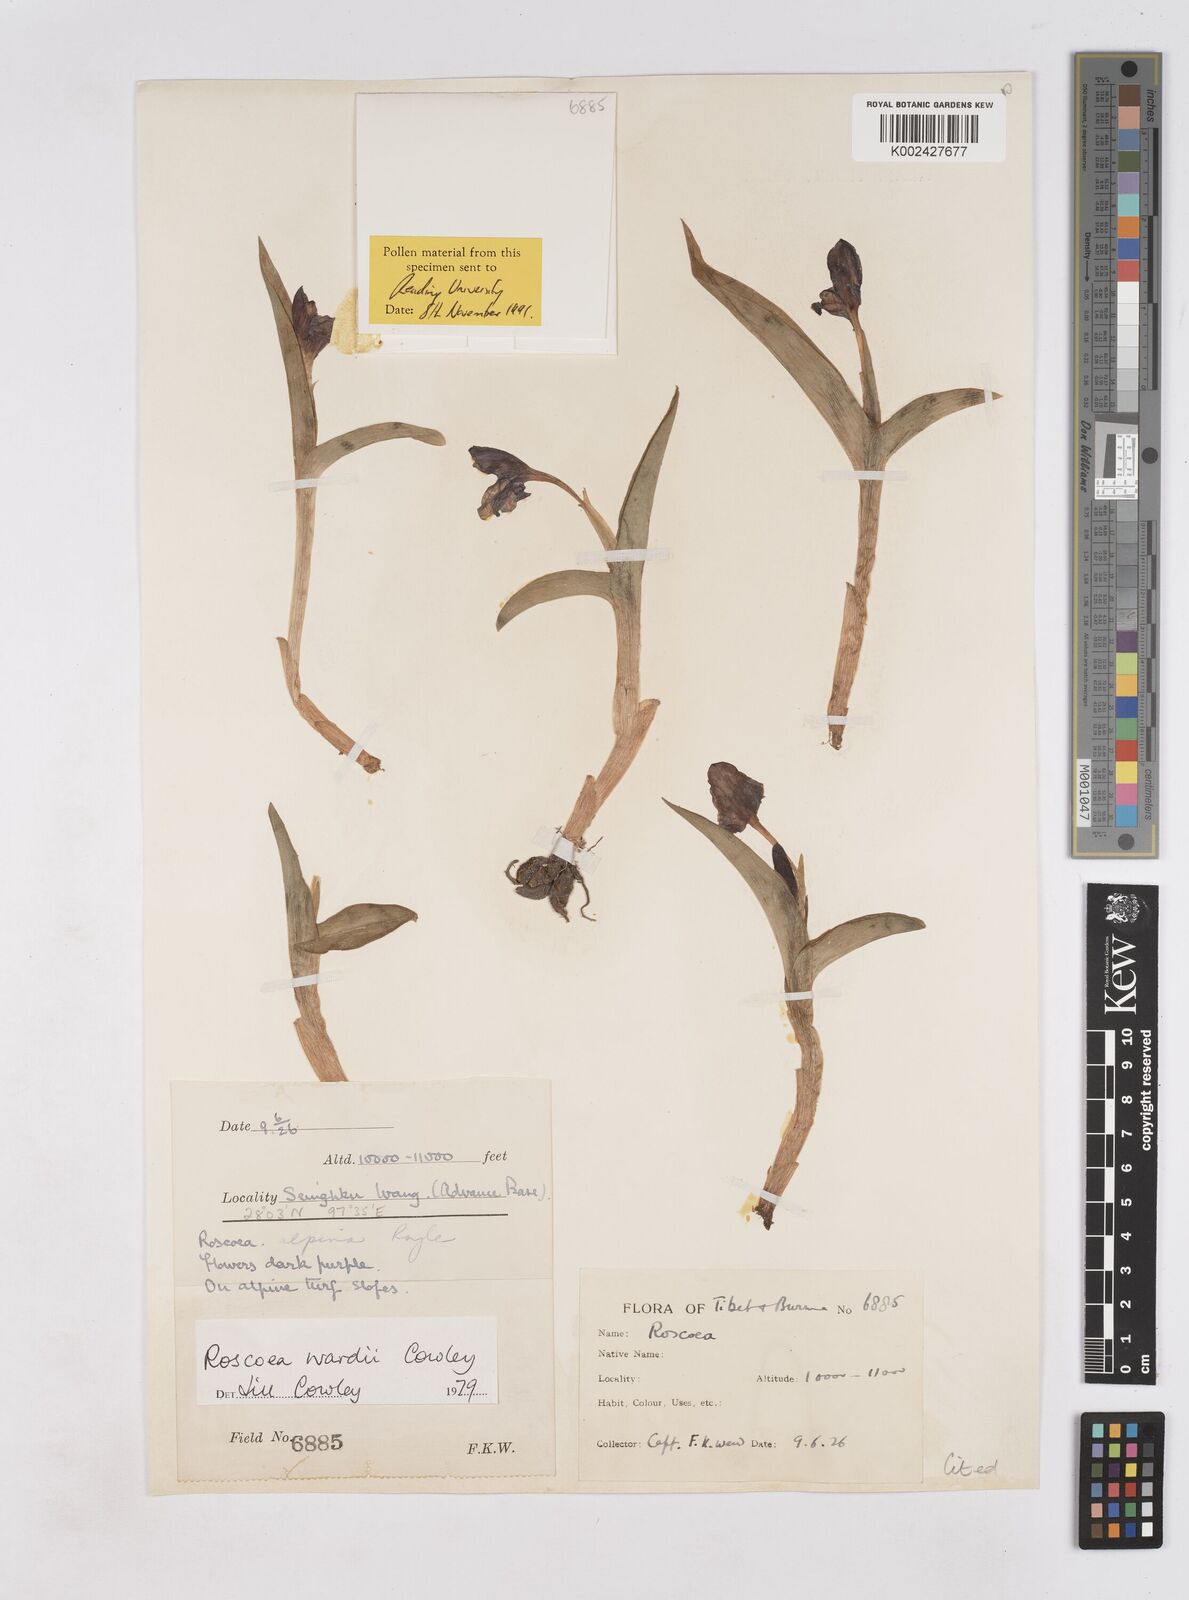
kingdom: Plantae
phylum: Tracheophyta
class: Liliopsida
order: Zingiberales
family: Zingiberaceae
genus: Roscoea
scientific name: Roscoea wardii
